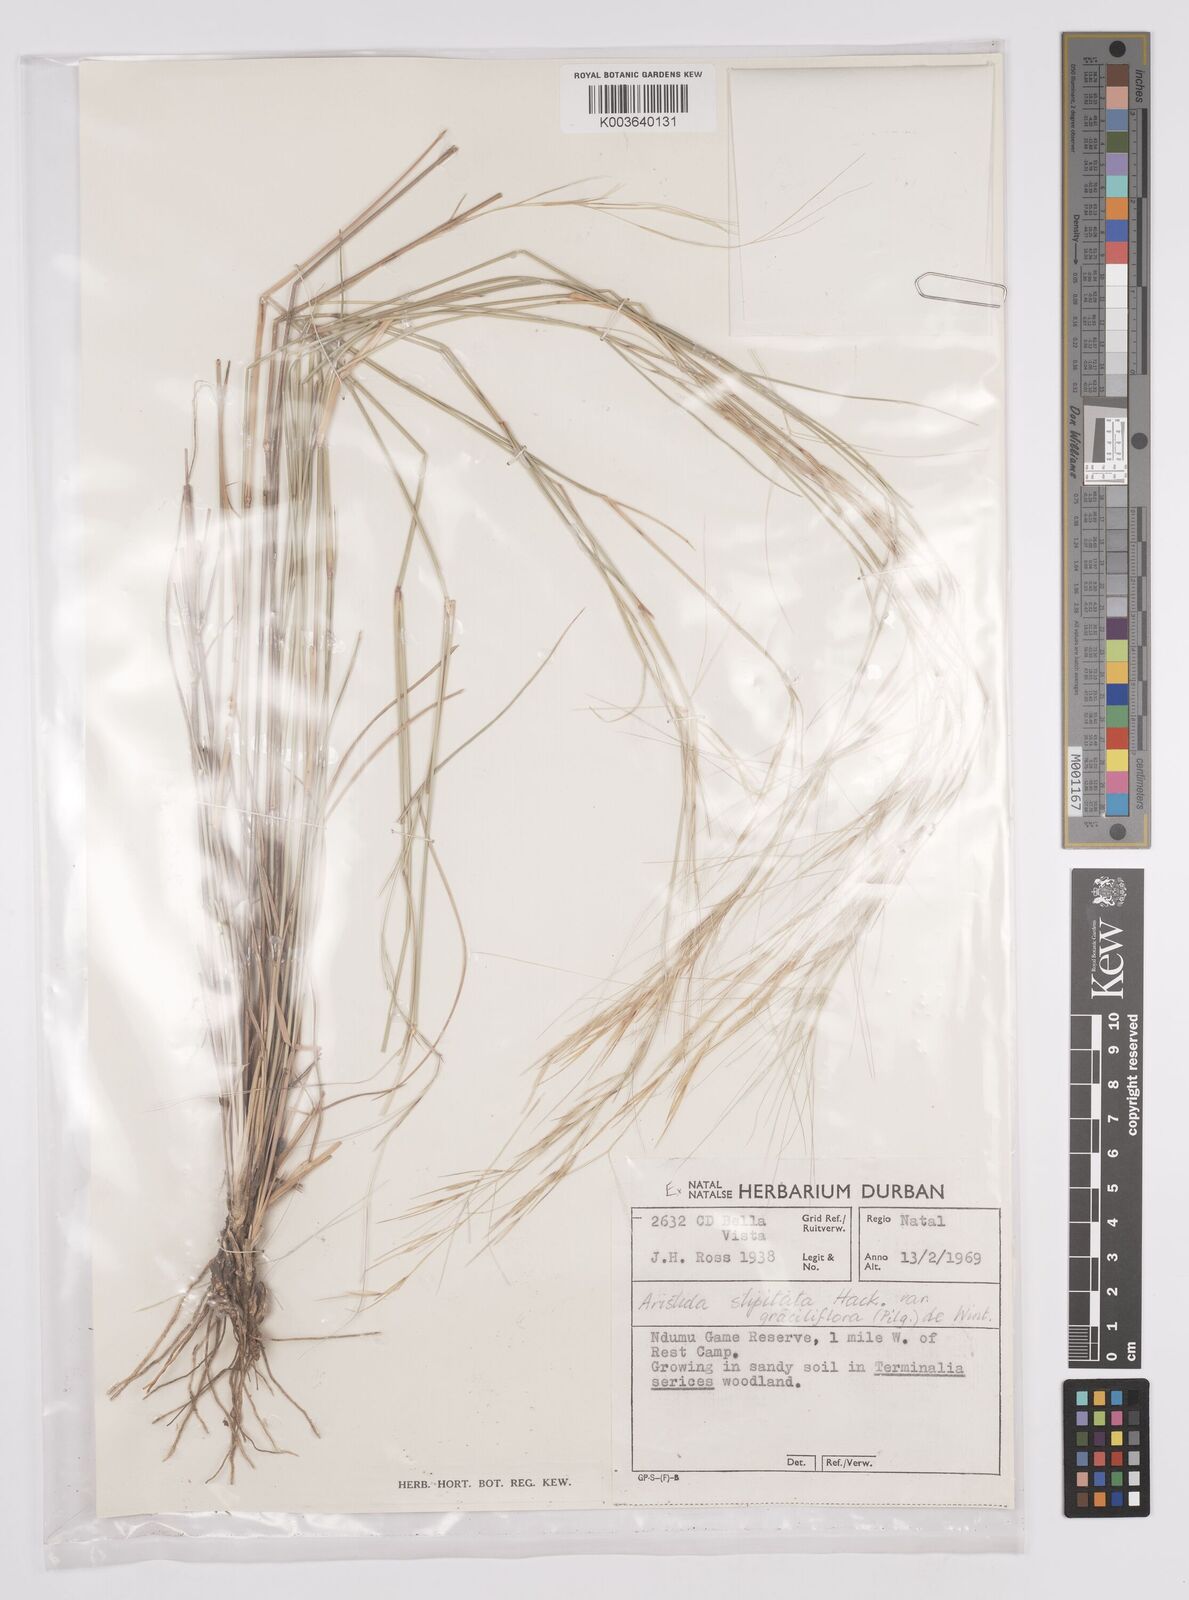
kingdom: Plantae
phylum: Tracheophyta
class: Liliopsida
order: Poales
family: Poaceae
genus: Aristida
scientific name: Aristida stipitata
